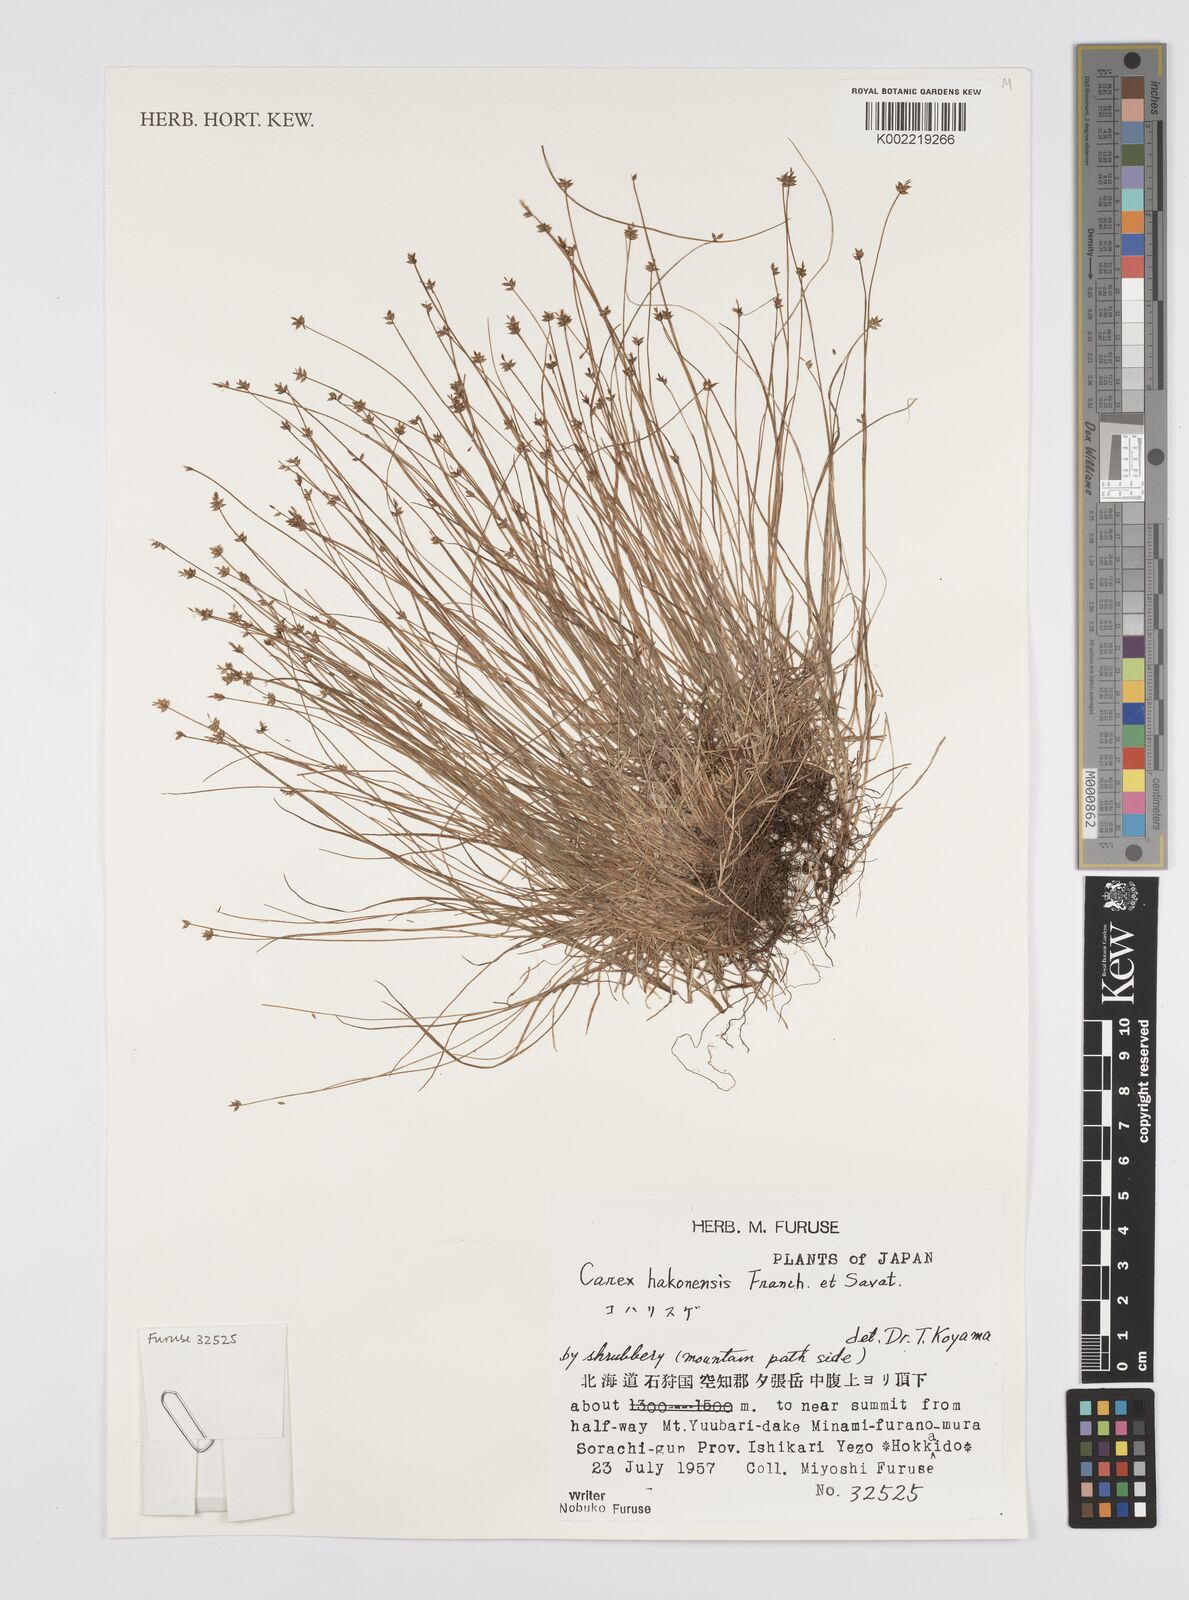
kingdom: Plantae
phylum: Tracheophyta
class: Liliopsida
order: Poales
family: Cyperaceae
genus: Carex
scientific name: Carex onoei
